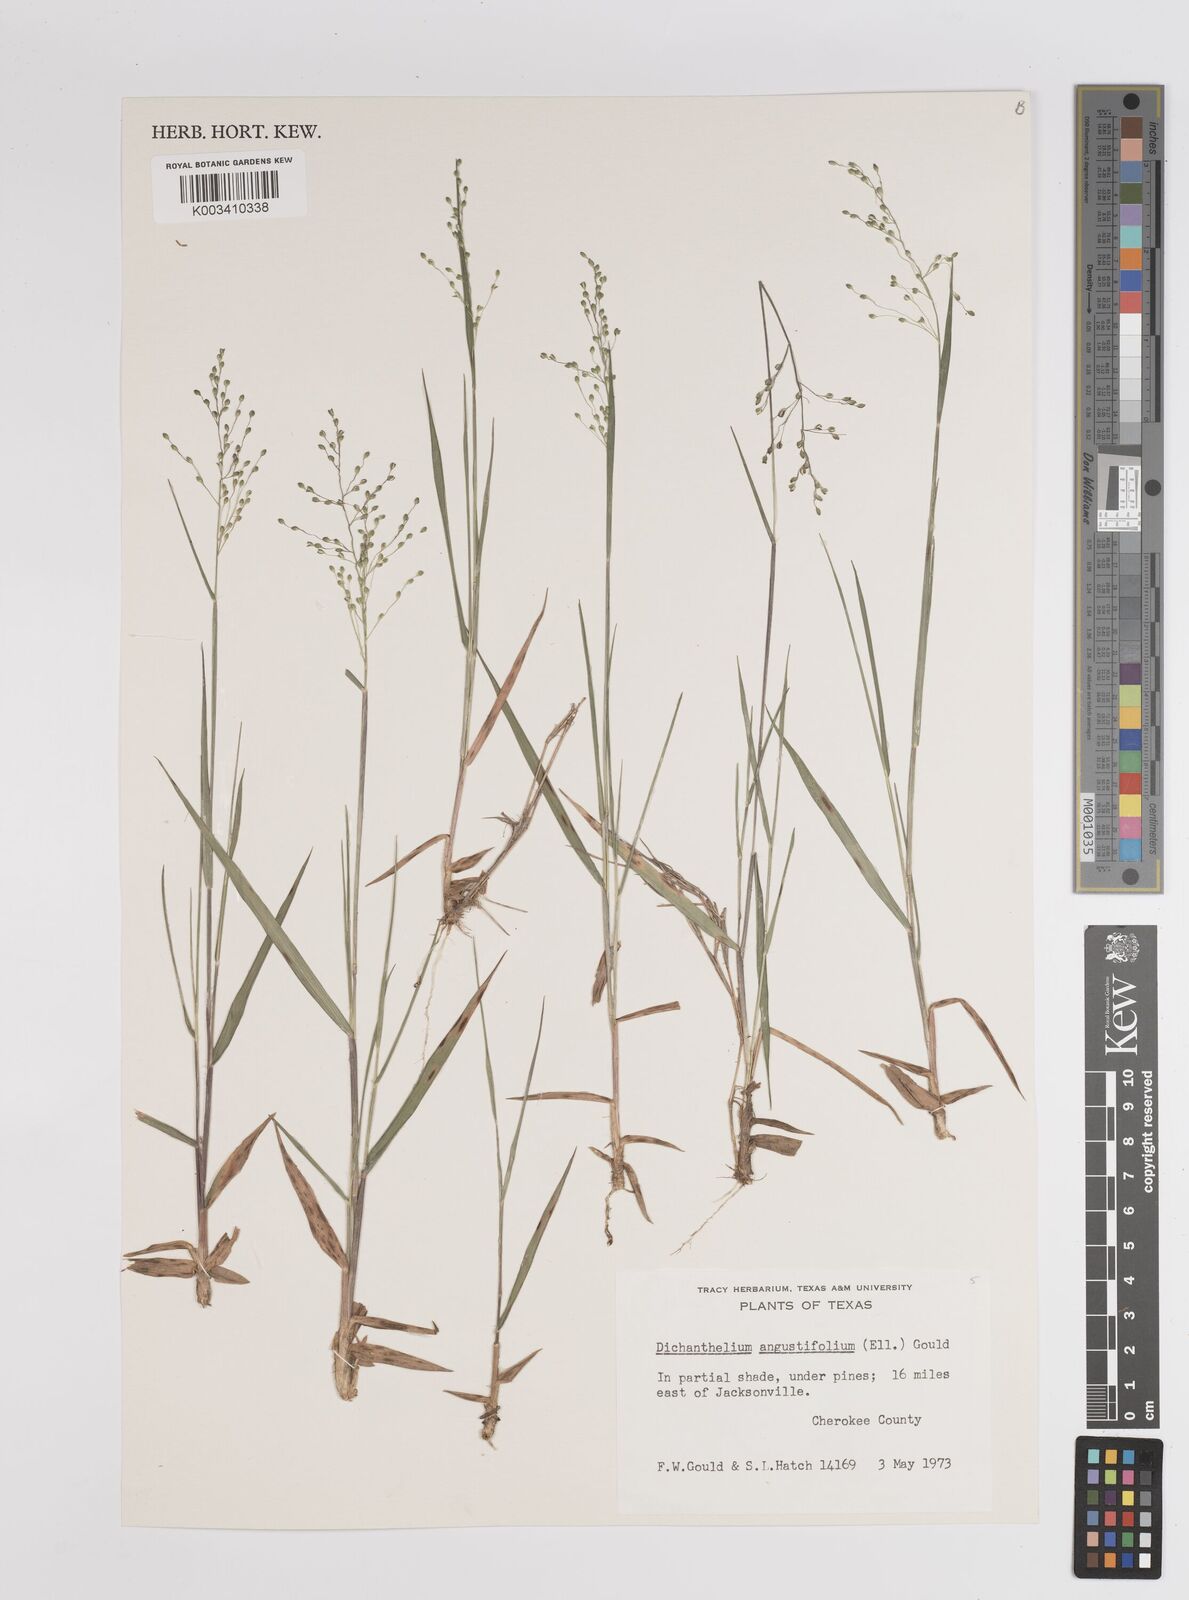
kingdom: Plantae
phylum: Tracheophyta
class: Liliopsida
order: Poales
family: Poaceae
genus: Dichanthelium
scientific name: Dichanthelium angustifolium
